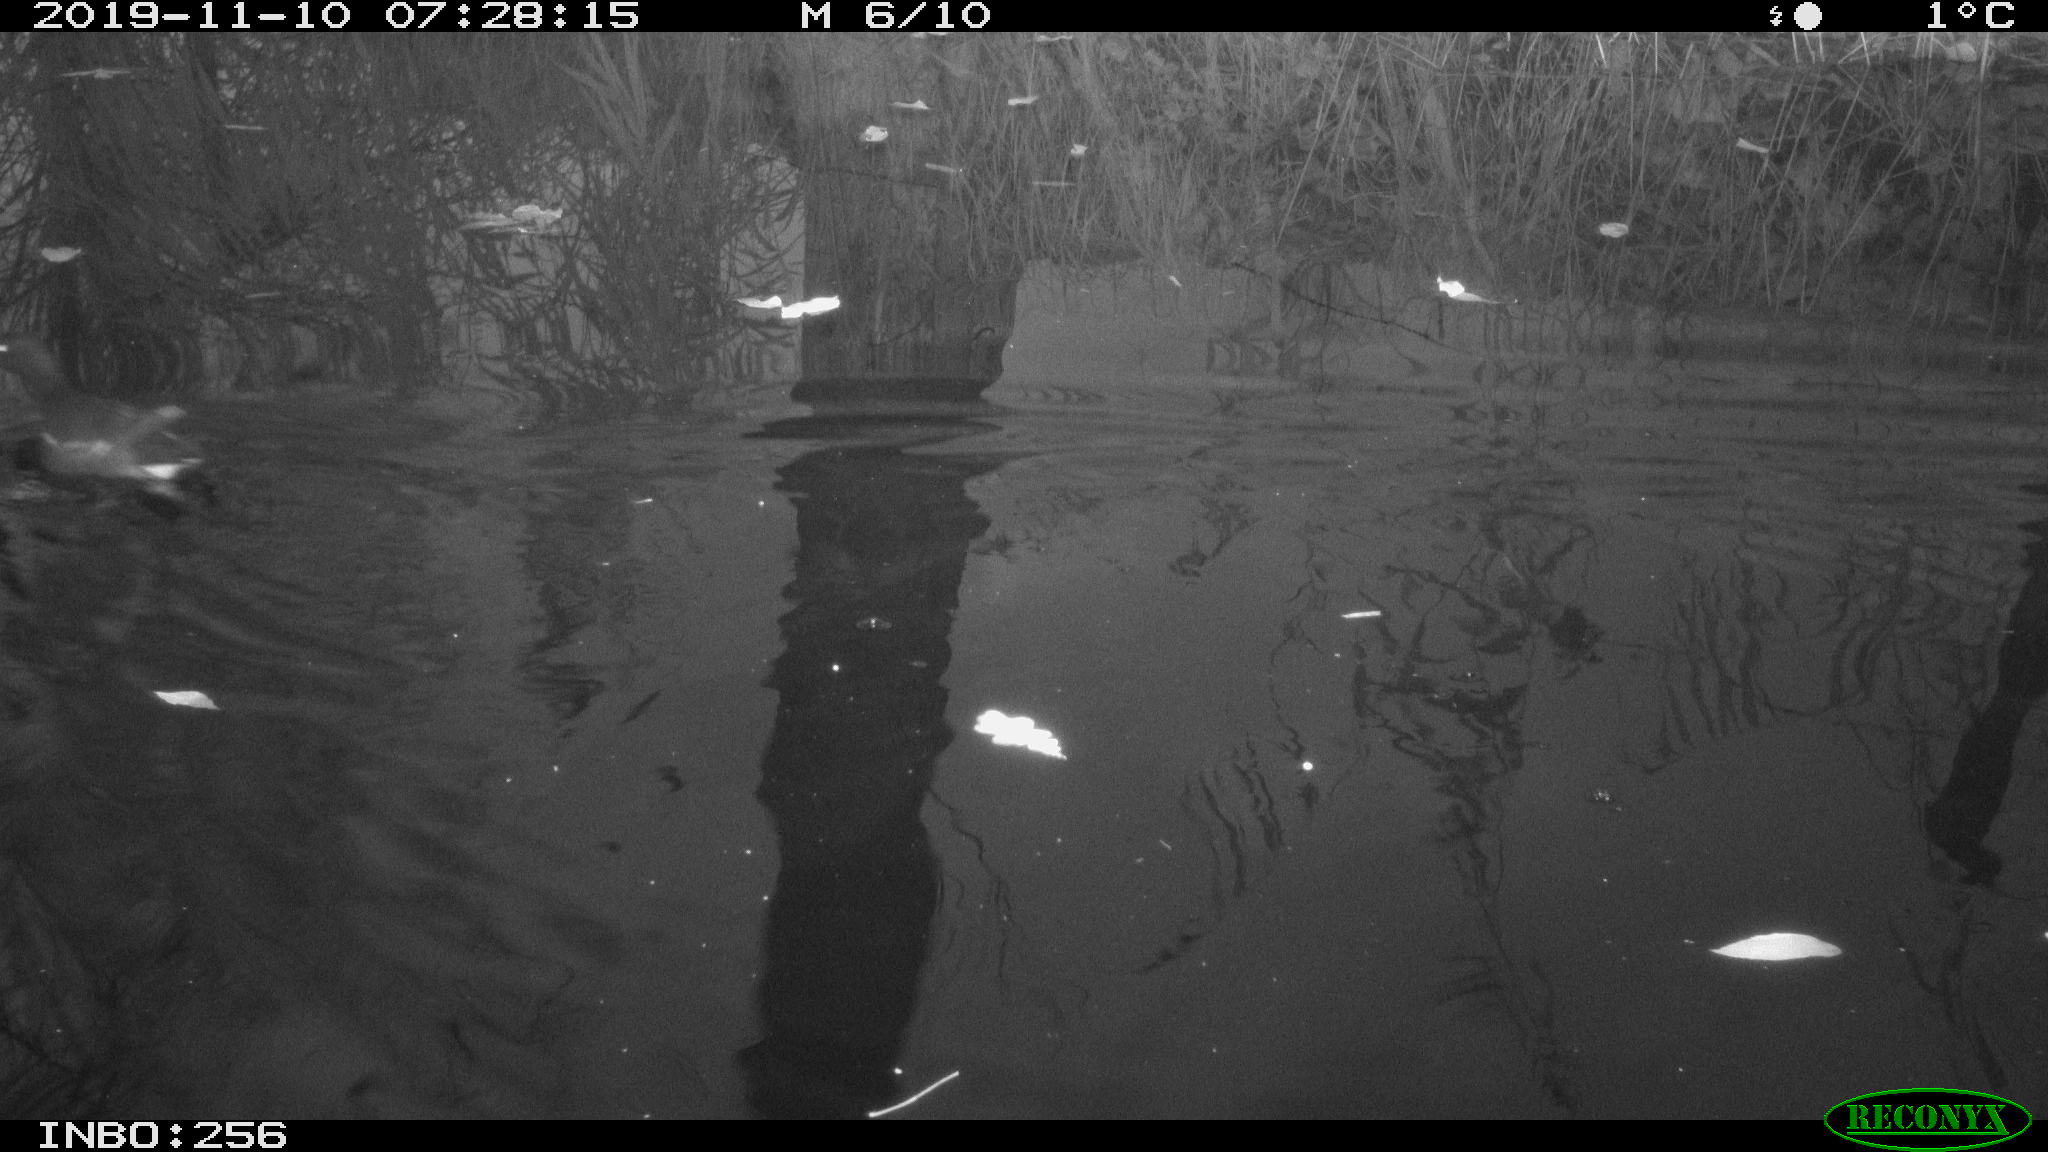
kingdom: Animalia
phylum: Chordata
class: Aves
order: Gruiformes
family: Rallidae
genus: Gallinula
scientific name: Gallinula chloropus
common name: Common moorhen
